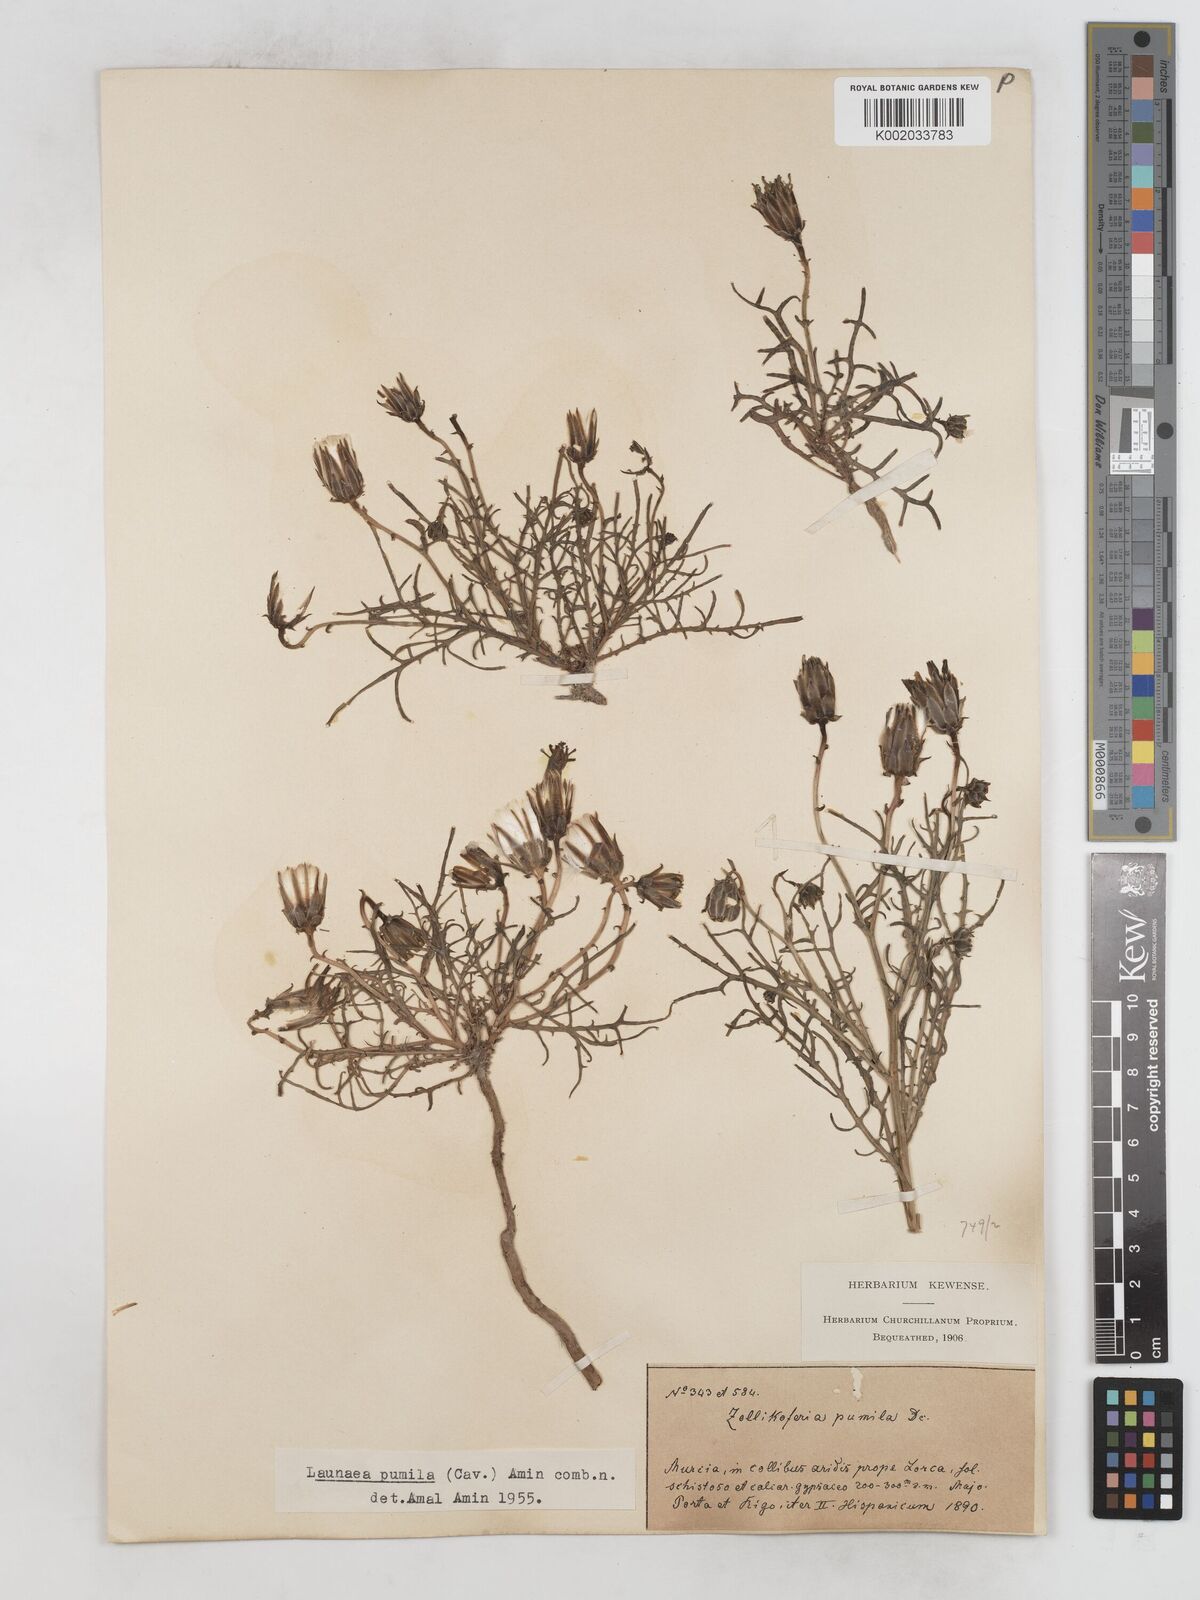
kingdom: Plantae
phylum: Tracheophyta
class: Magnoliopsida
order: Asterales
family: Asteraceae
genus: Launaea
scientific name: Launaea pumila
